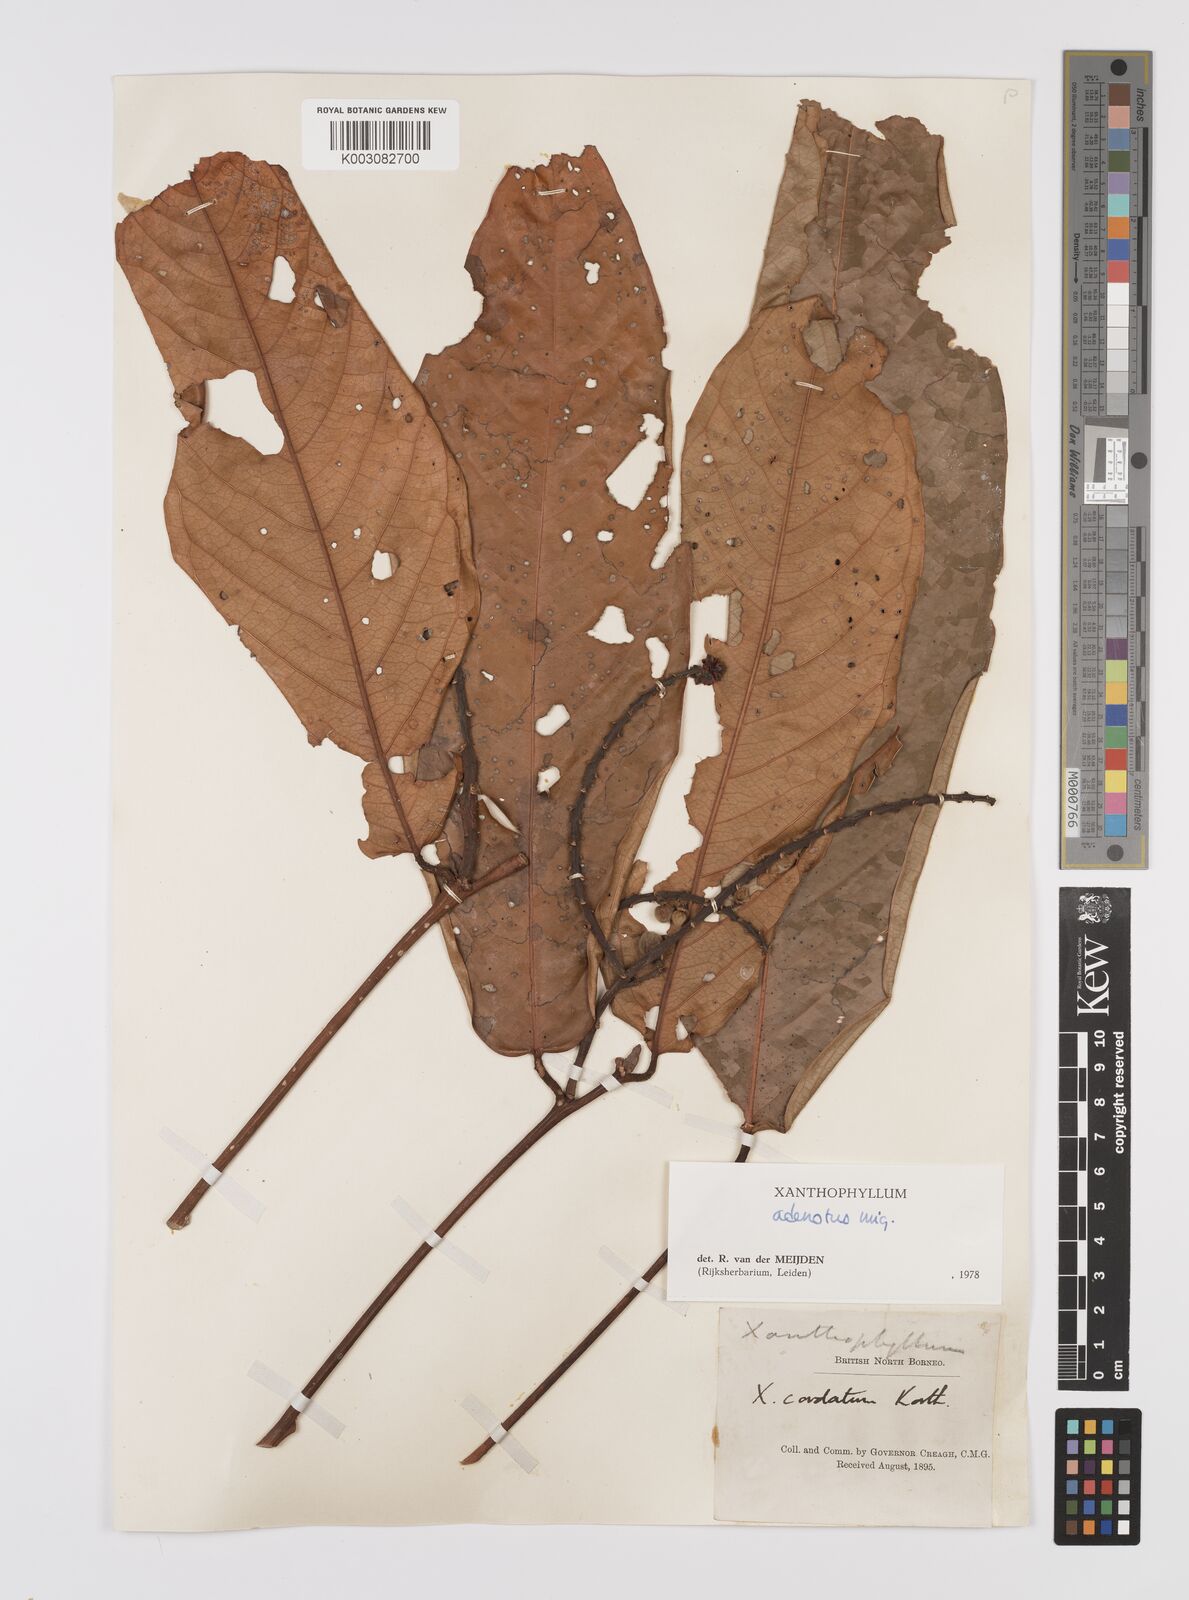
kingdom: Plantae
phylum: Tracheophyta
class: Magnoliopsida
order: Fabales
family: Polygalaceae
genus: Xanthophyllum
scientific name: Xanthophyllum adenotus
